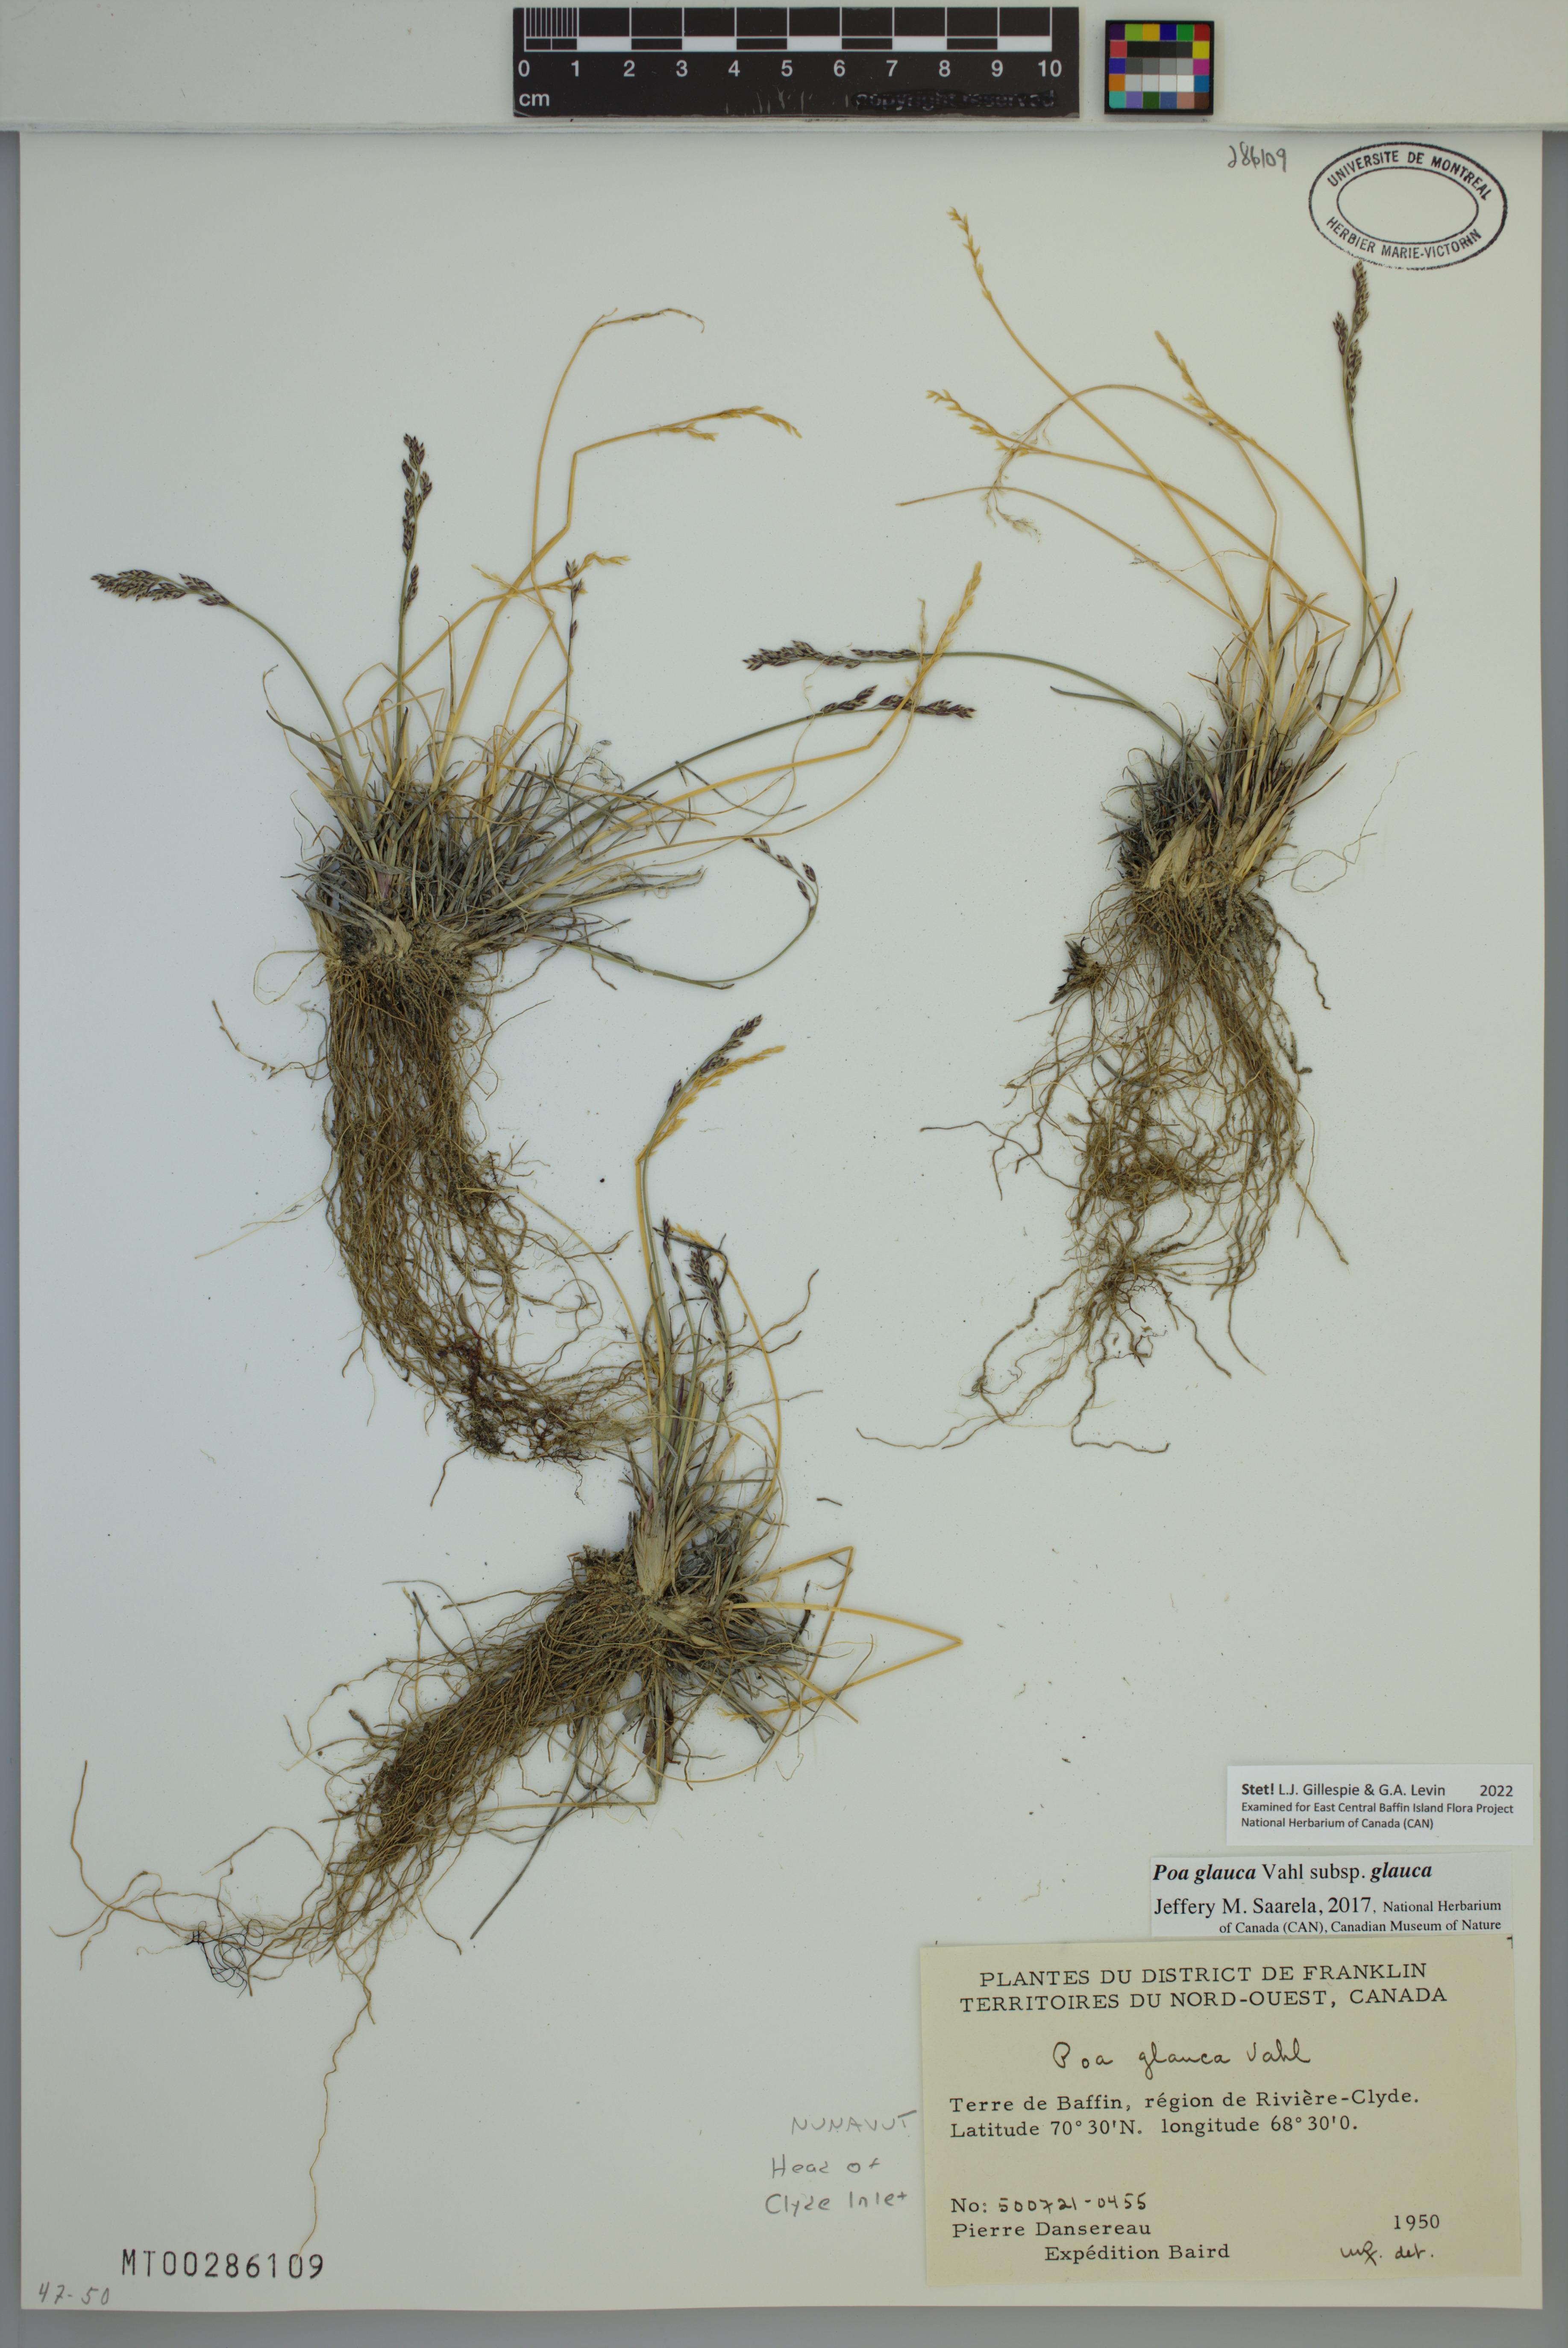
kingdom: Plantae
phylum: Tracheophyta
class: Liliopsida
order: Poales
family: Poaceae
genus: Poa
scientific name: Poa glauca
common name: Glaucous bluegrass
